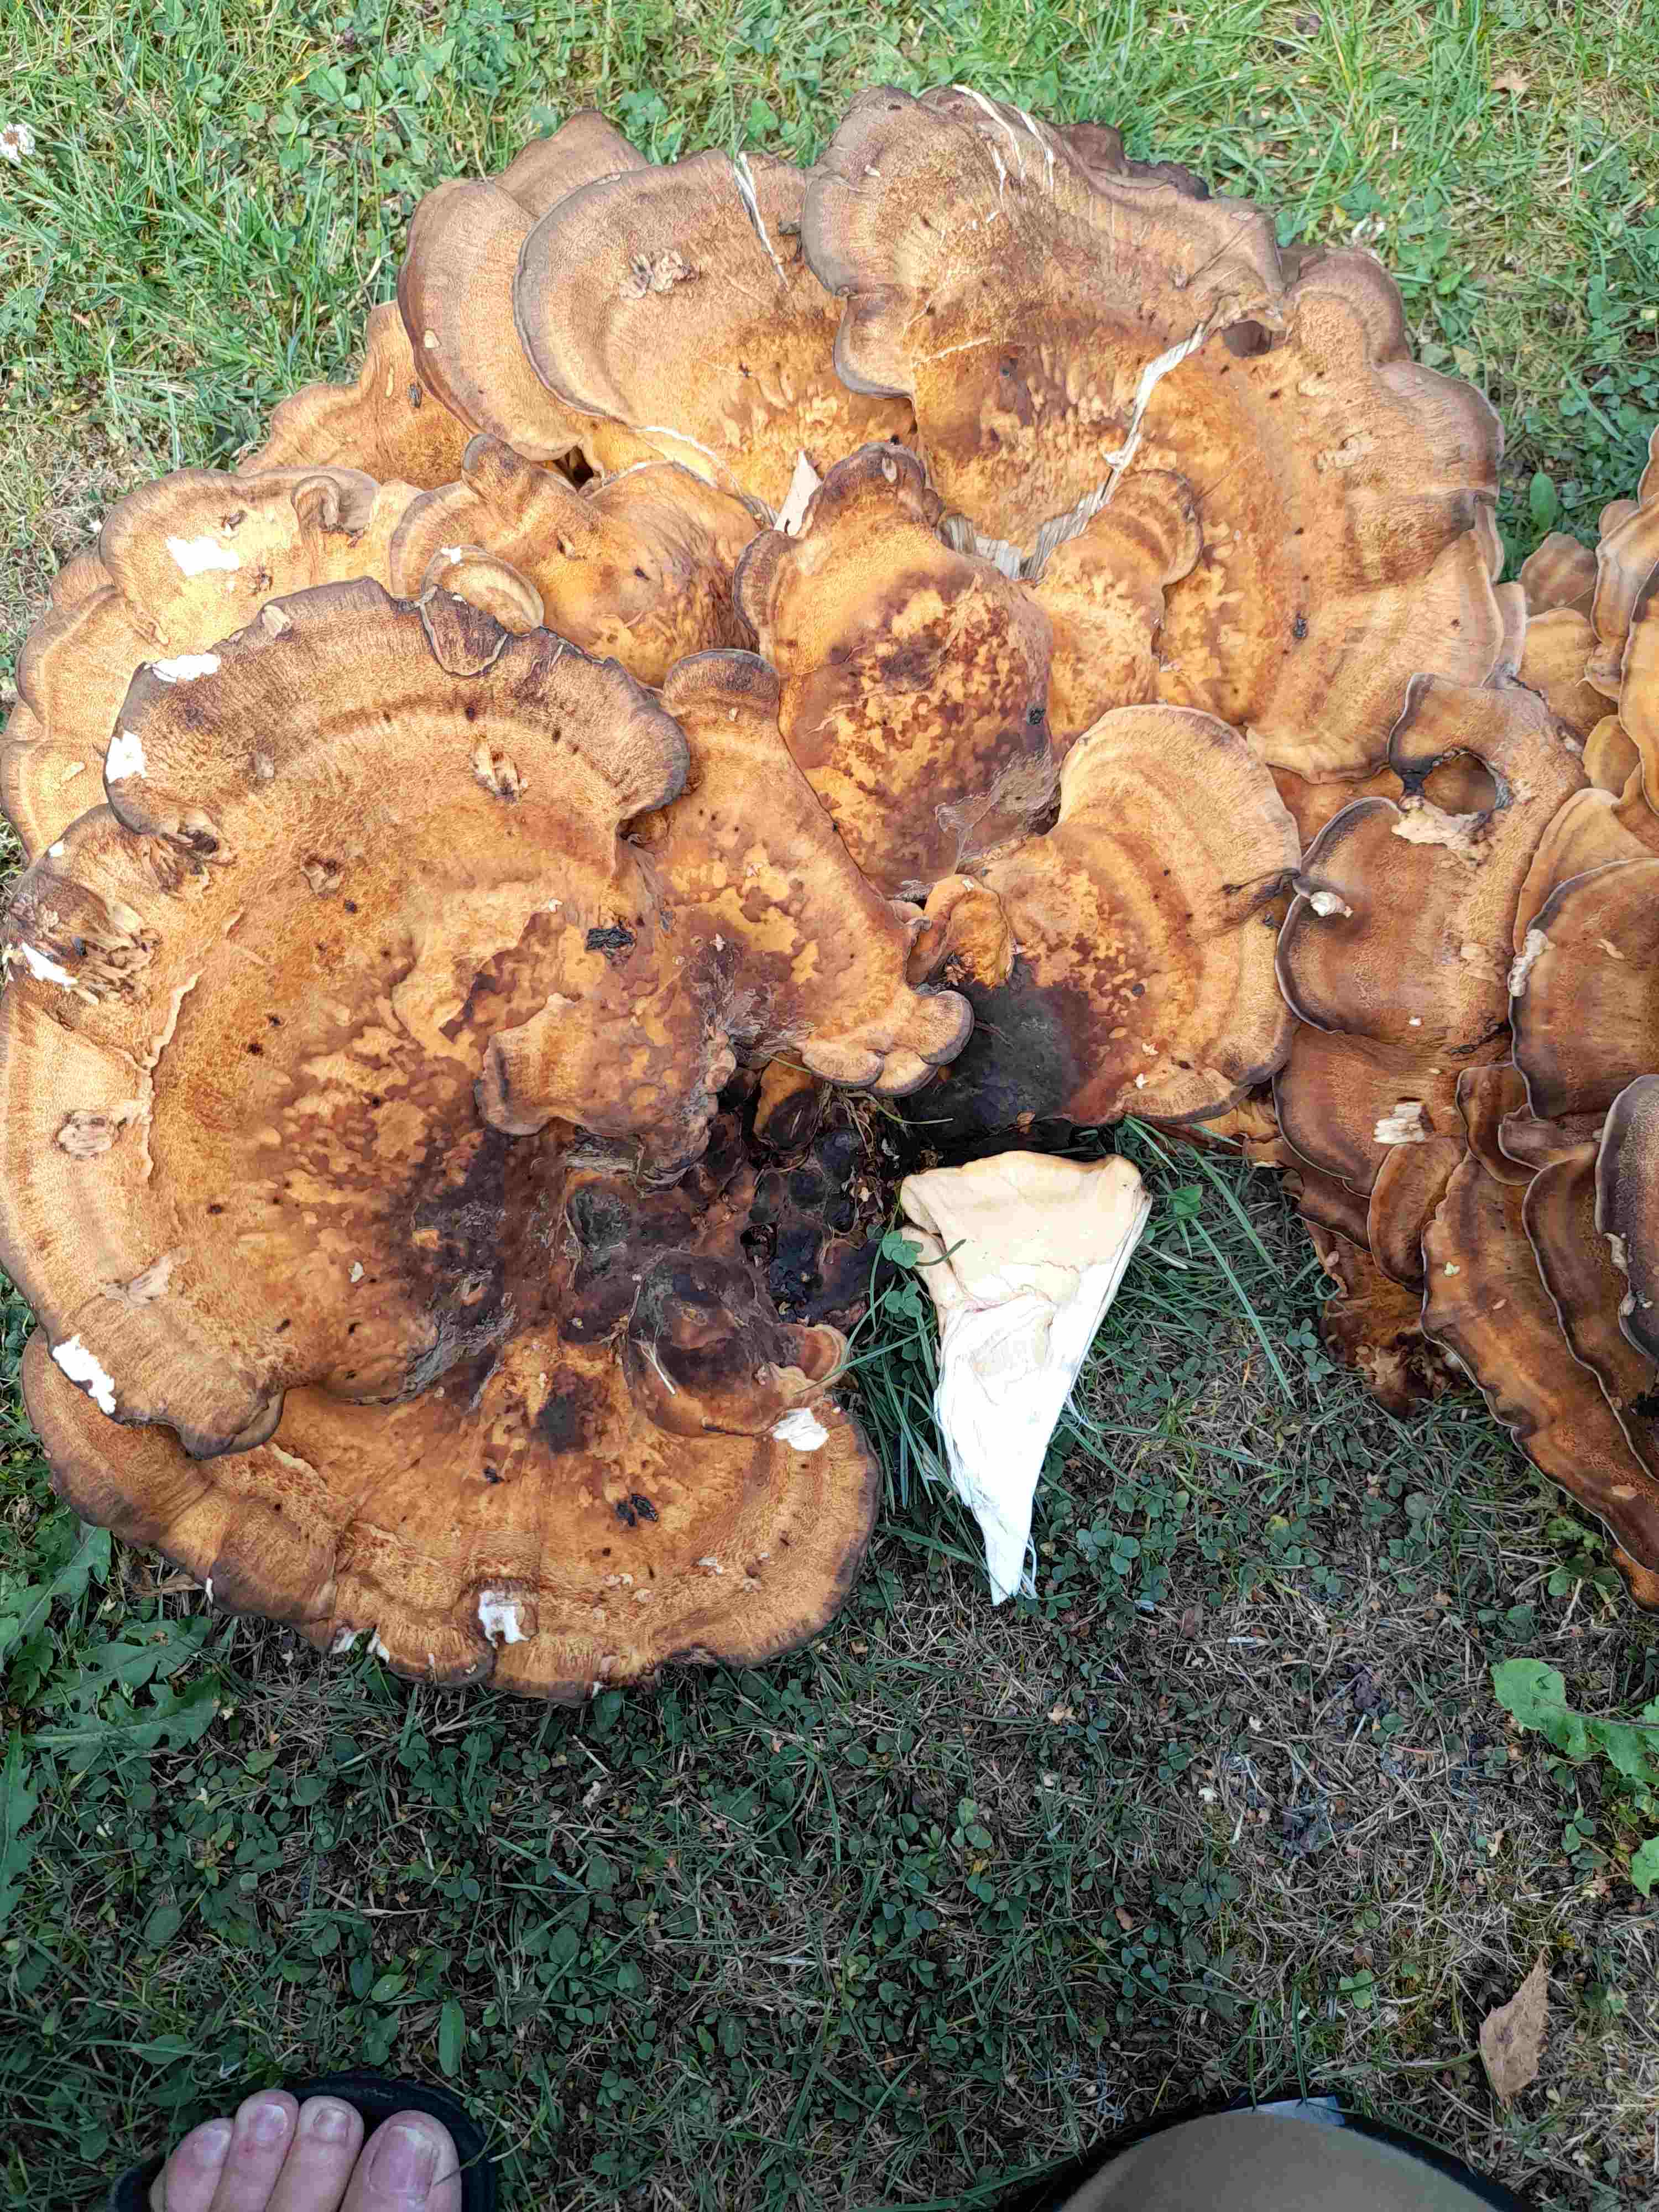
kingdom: Fungi
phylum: Basidiomycota
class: Agaricomycetes
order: Polyporales
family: Meripilaceae
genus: Meripilus
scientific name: Meripilus giganteus
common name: kæmpeporesvamp
